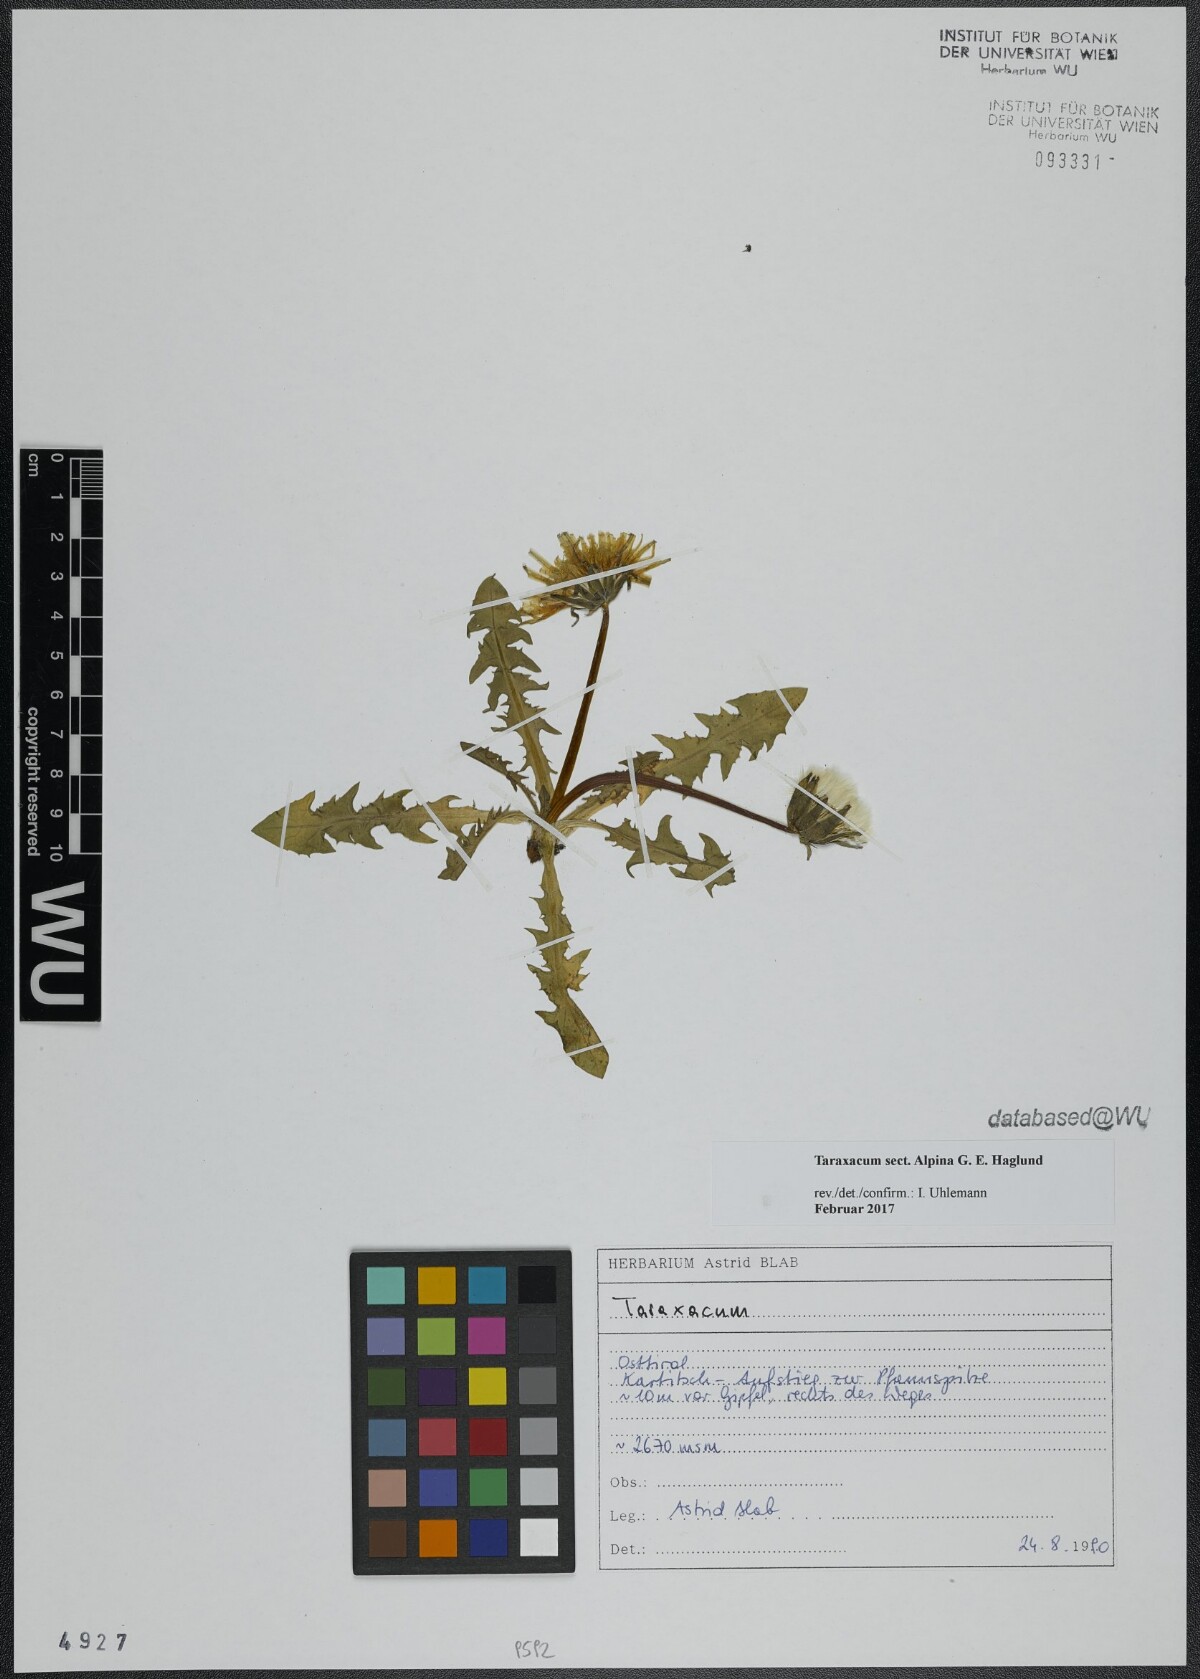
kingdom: Plantae
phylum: Tracheophyta
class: Magnoliopsida
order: Asterales
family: Asteraceae
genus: Taraxacum
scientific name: Taraxacum
